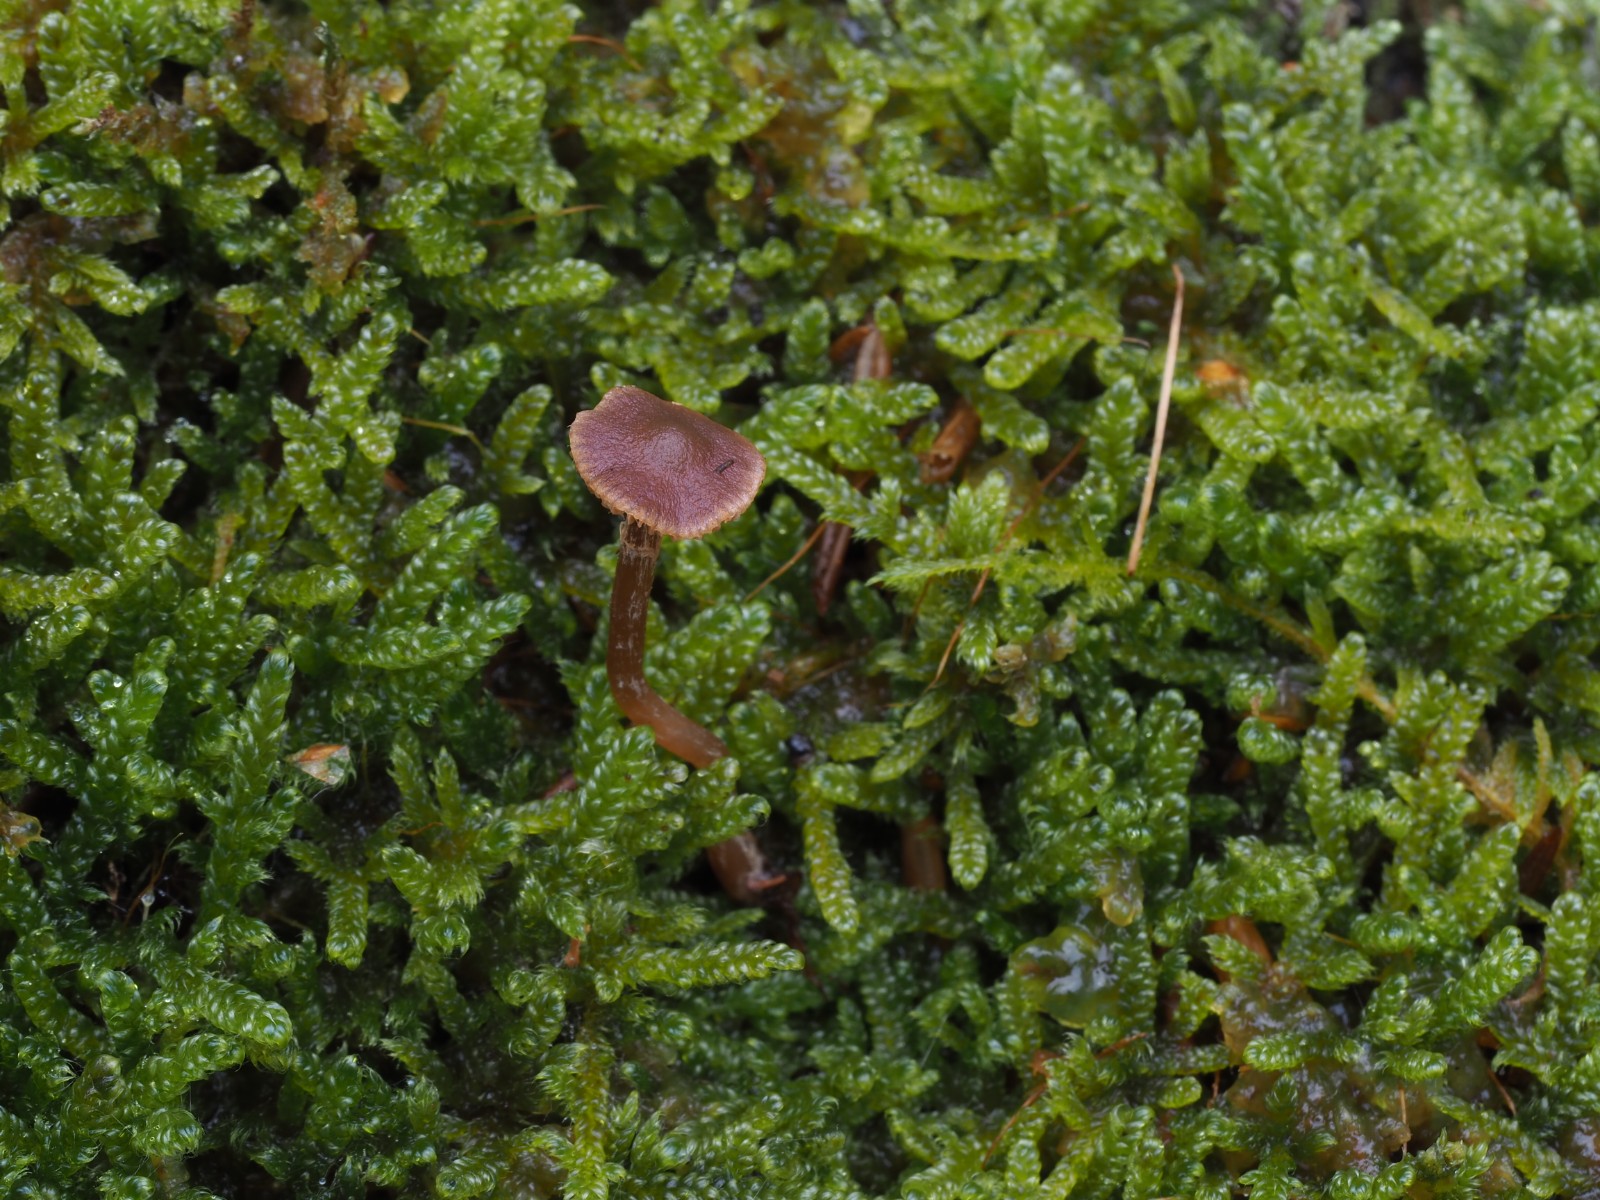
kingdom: Fungi
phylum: Basidiomycota
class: Agaricomycetes
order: Agaricales
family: Hymenogastraceae
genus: Galerina
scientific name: Galerina ampullaceocystis
